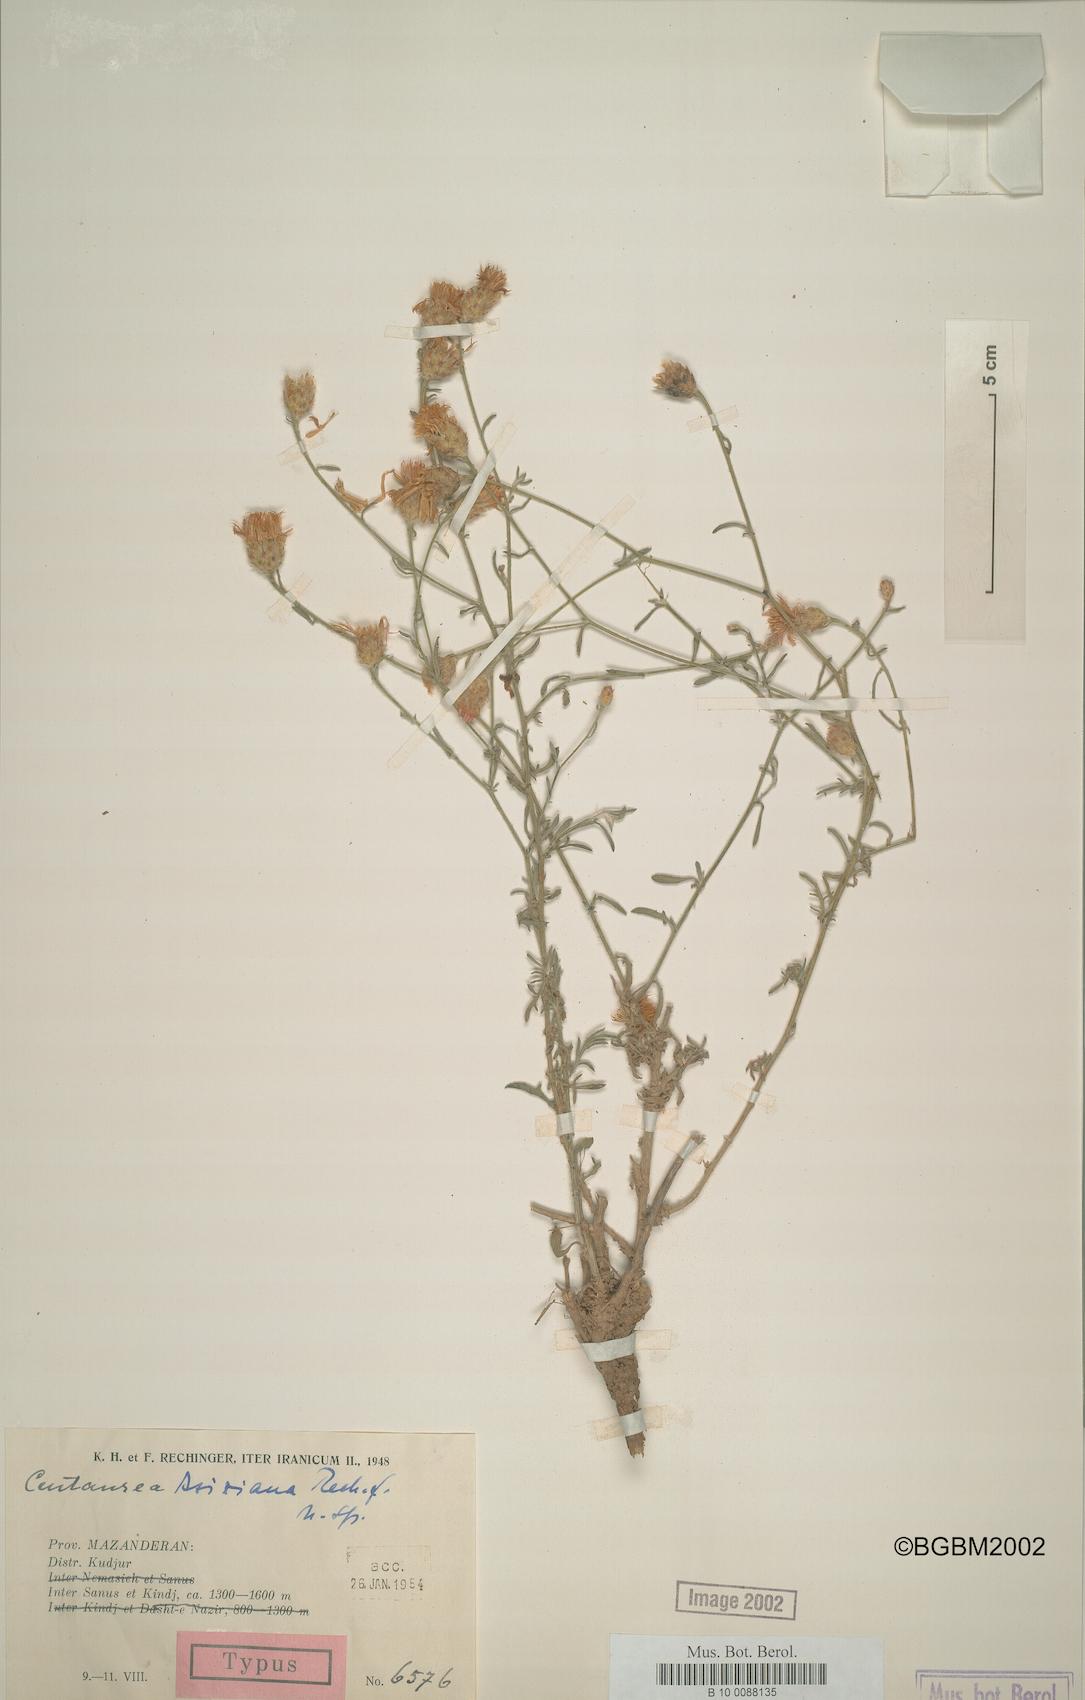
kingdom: Plantae
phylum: Tracheophyta
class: Magnoliopsida
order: Asterales
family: Asteraceae
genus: Centaurea
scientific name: Centaurea aziziana
